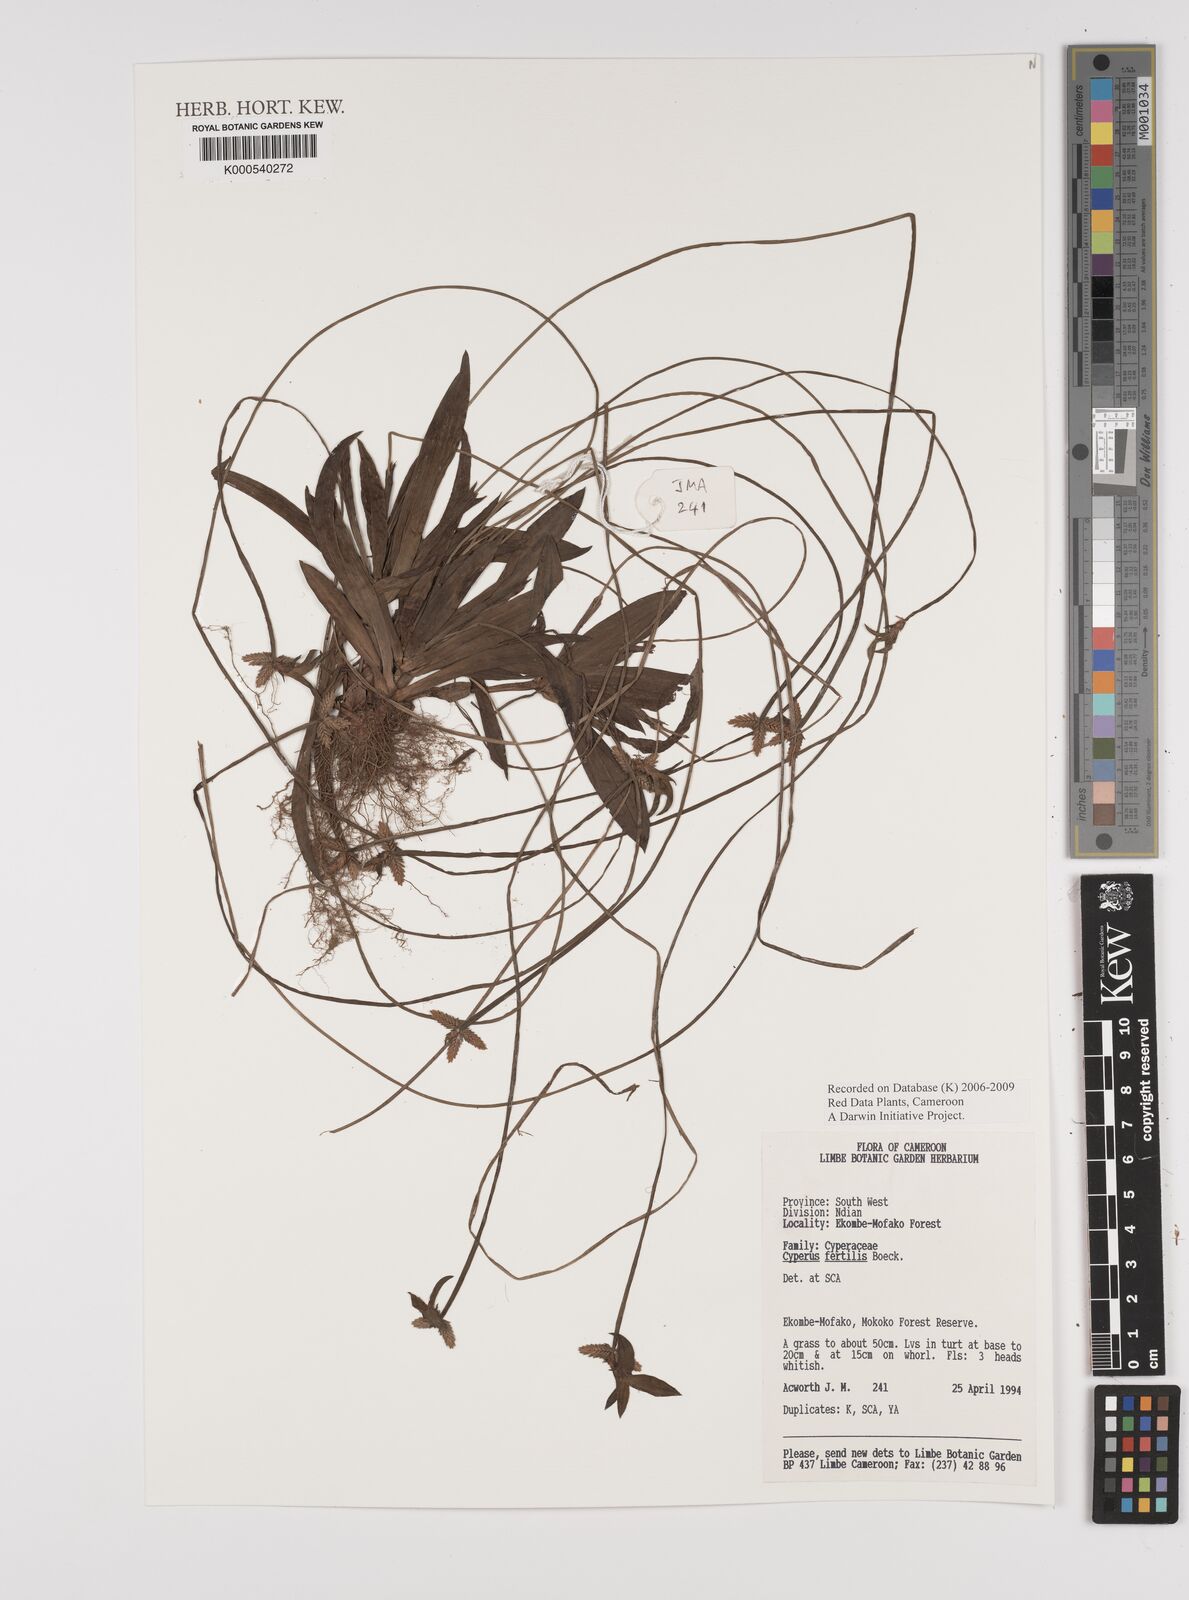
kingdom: Plantae
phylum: Tracheophyta
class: Liliopsida
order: Poales
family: Cyperaceae
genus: Cyperus
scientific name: Cyperus fertilis
